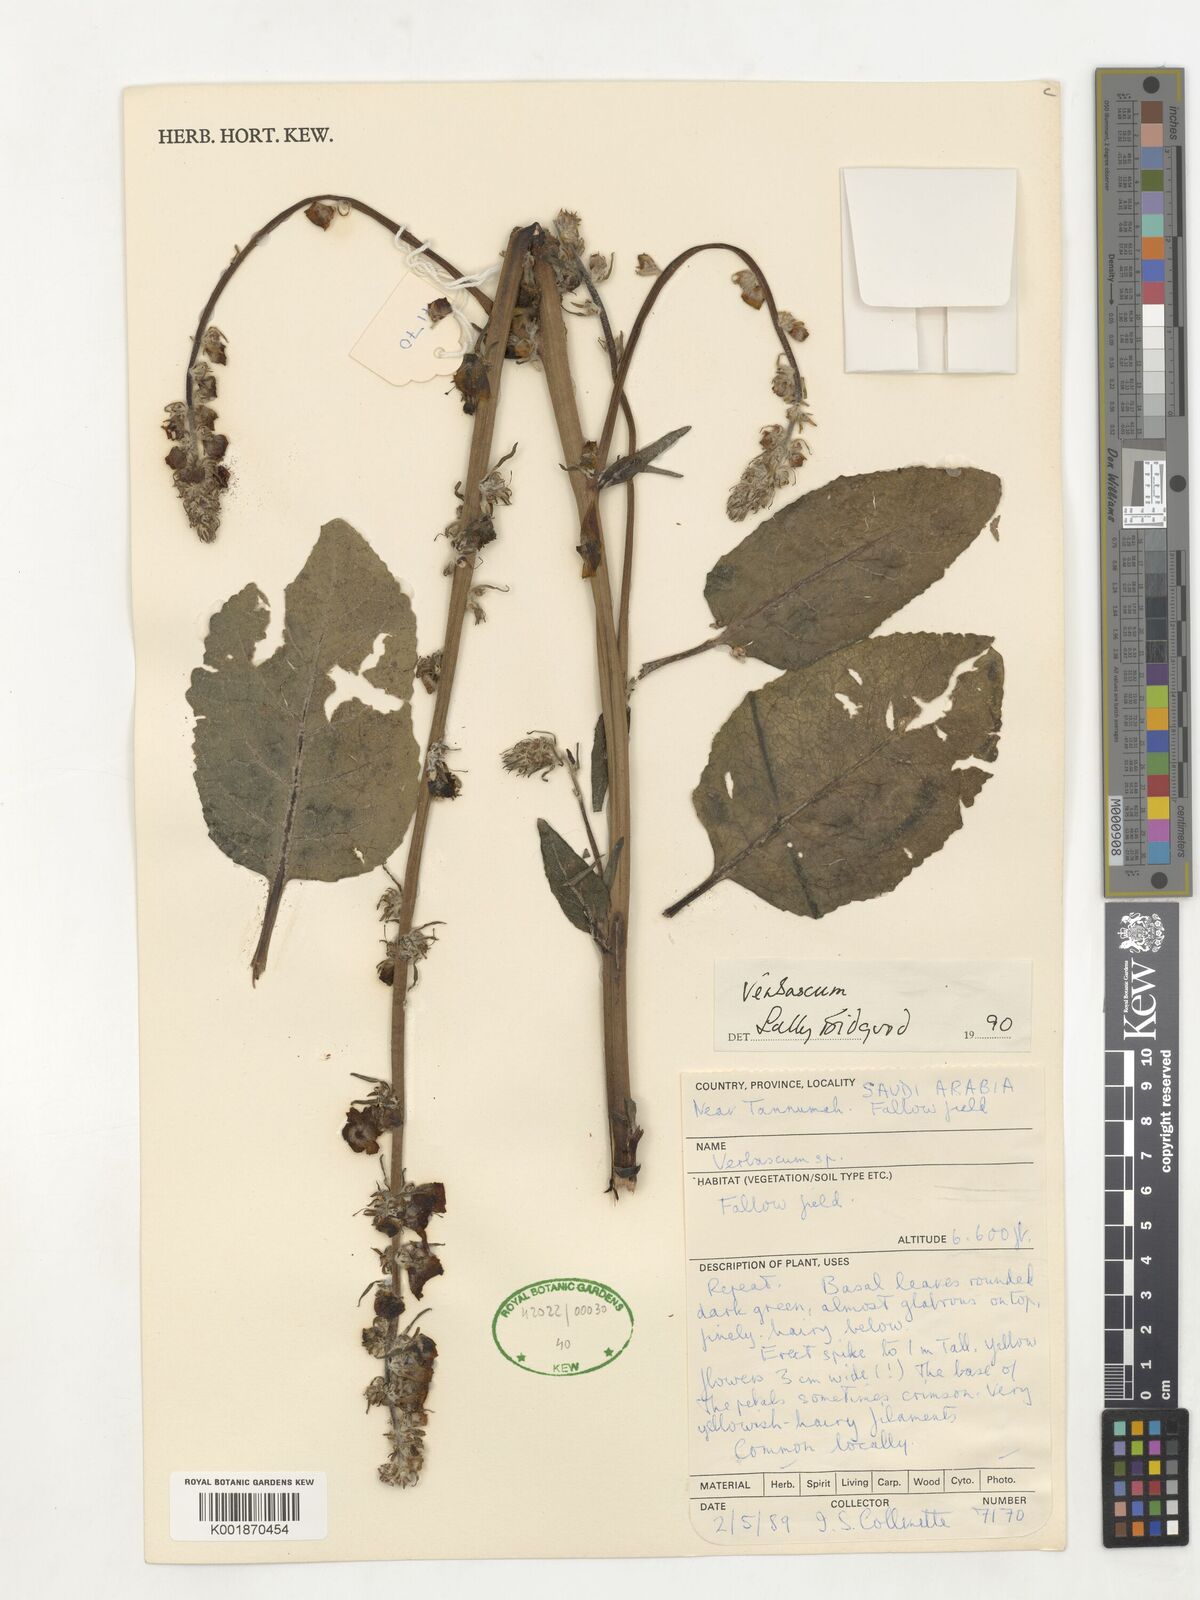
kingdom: Plantae
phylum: Tracheophyta
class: Magnoliopsida
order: Lamiales
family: Scrophulariaceae
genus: Verbascum
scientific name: Verbascum
